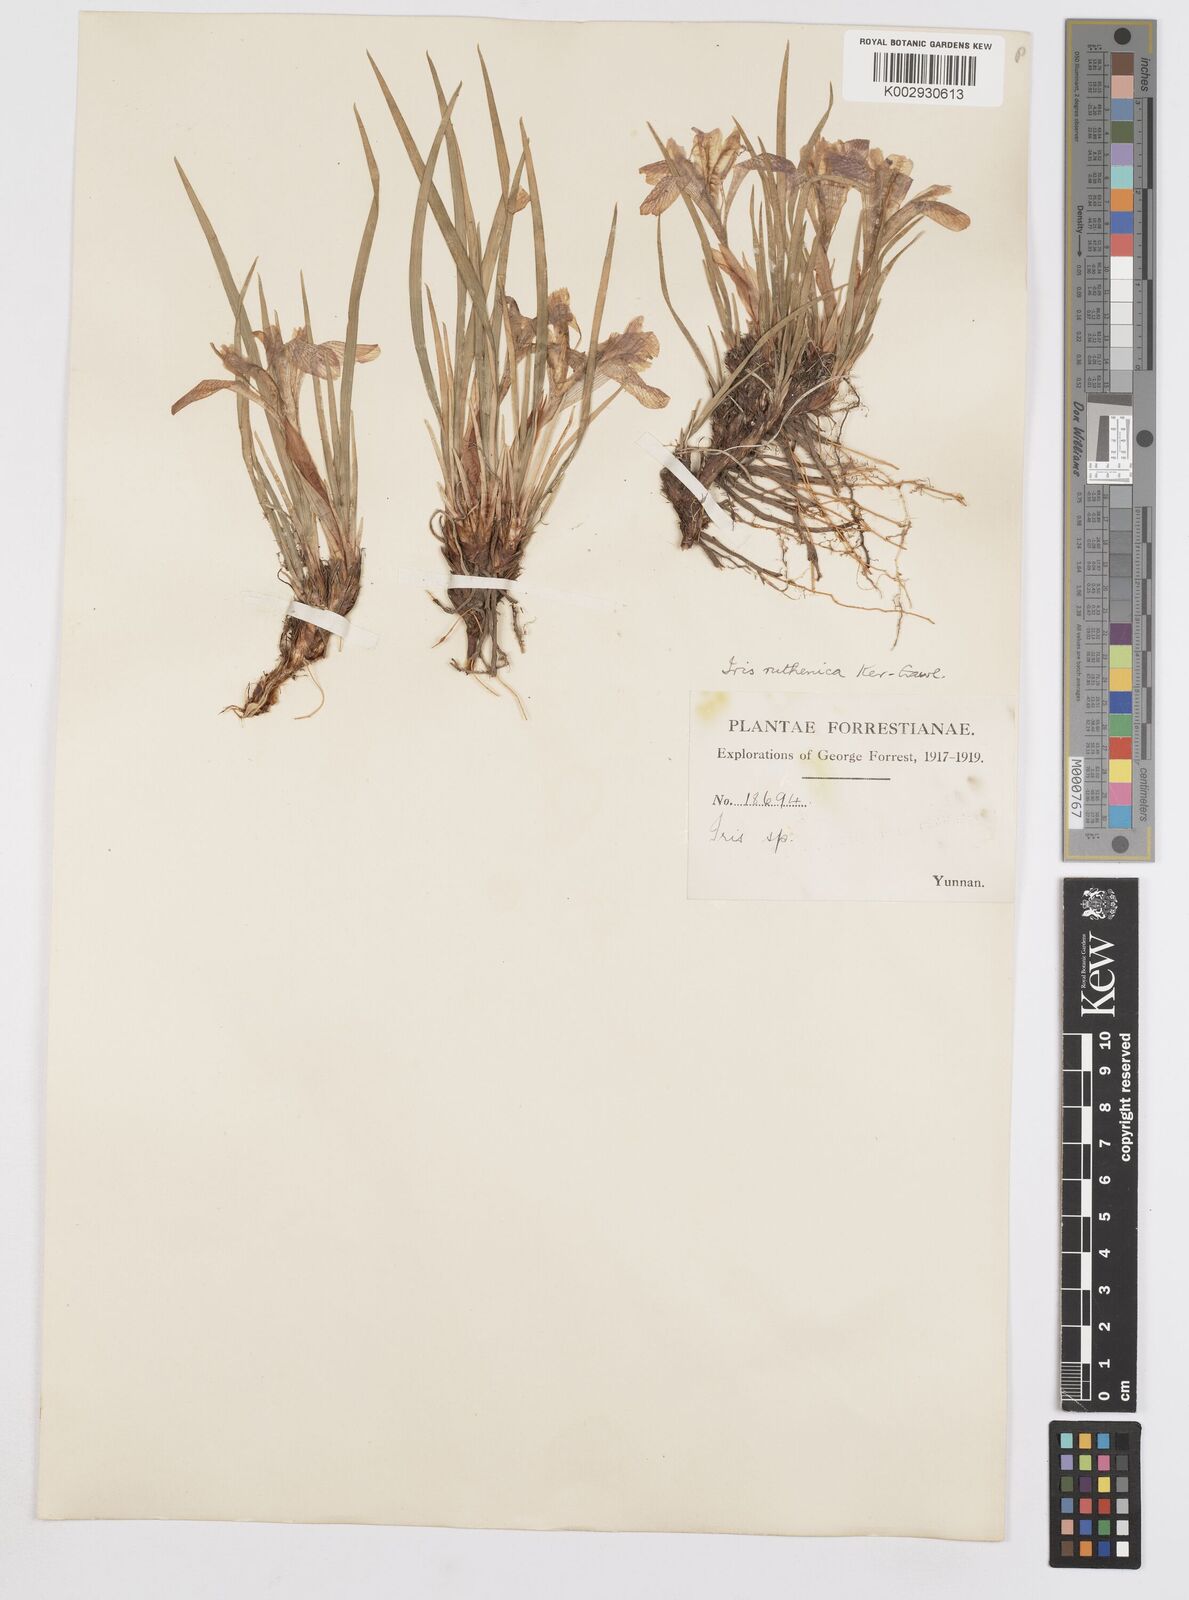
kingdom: Plantae
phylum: Tracheophyta
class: Liliopsida
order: Asparagales
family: Iridaceae
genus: Iris
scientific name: Iris ruthenica
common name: Purple-bract iris
